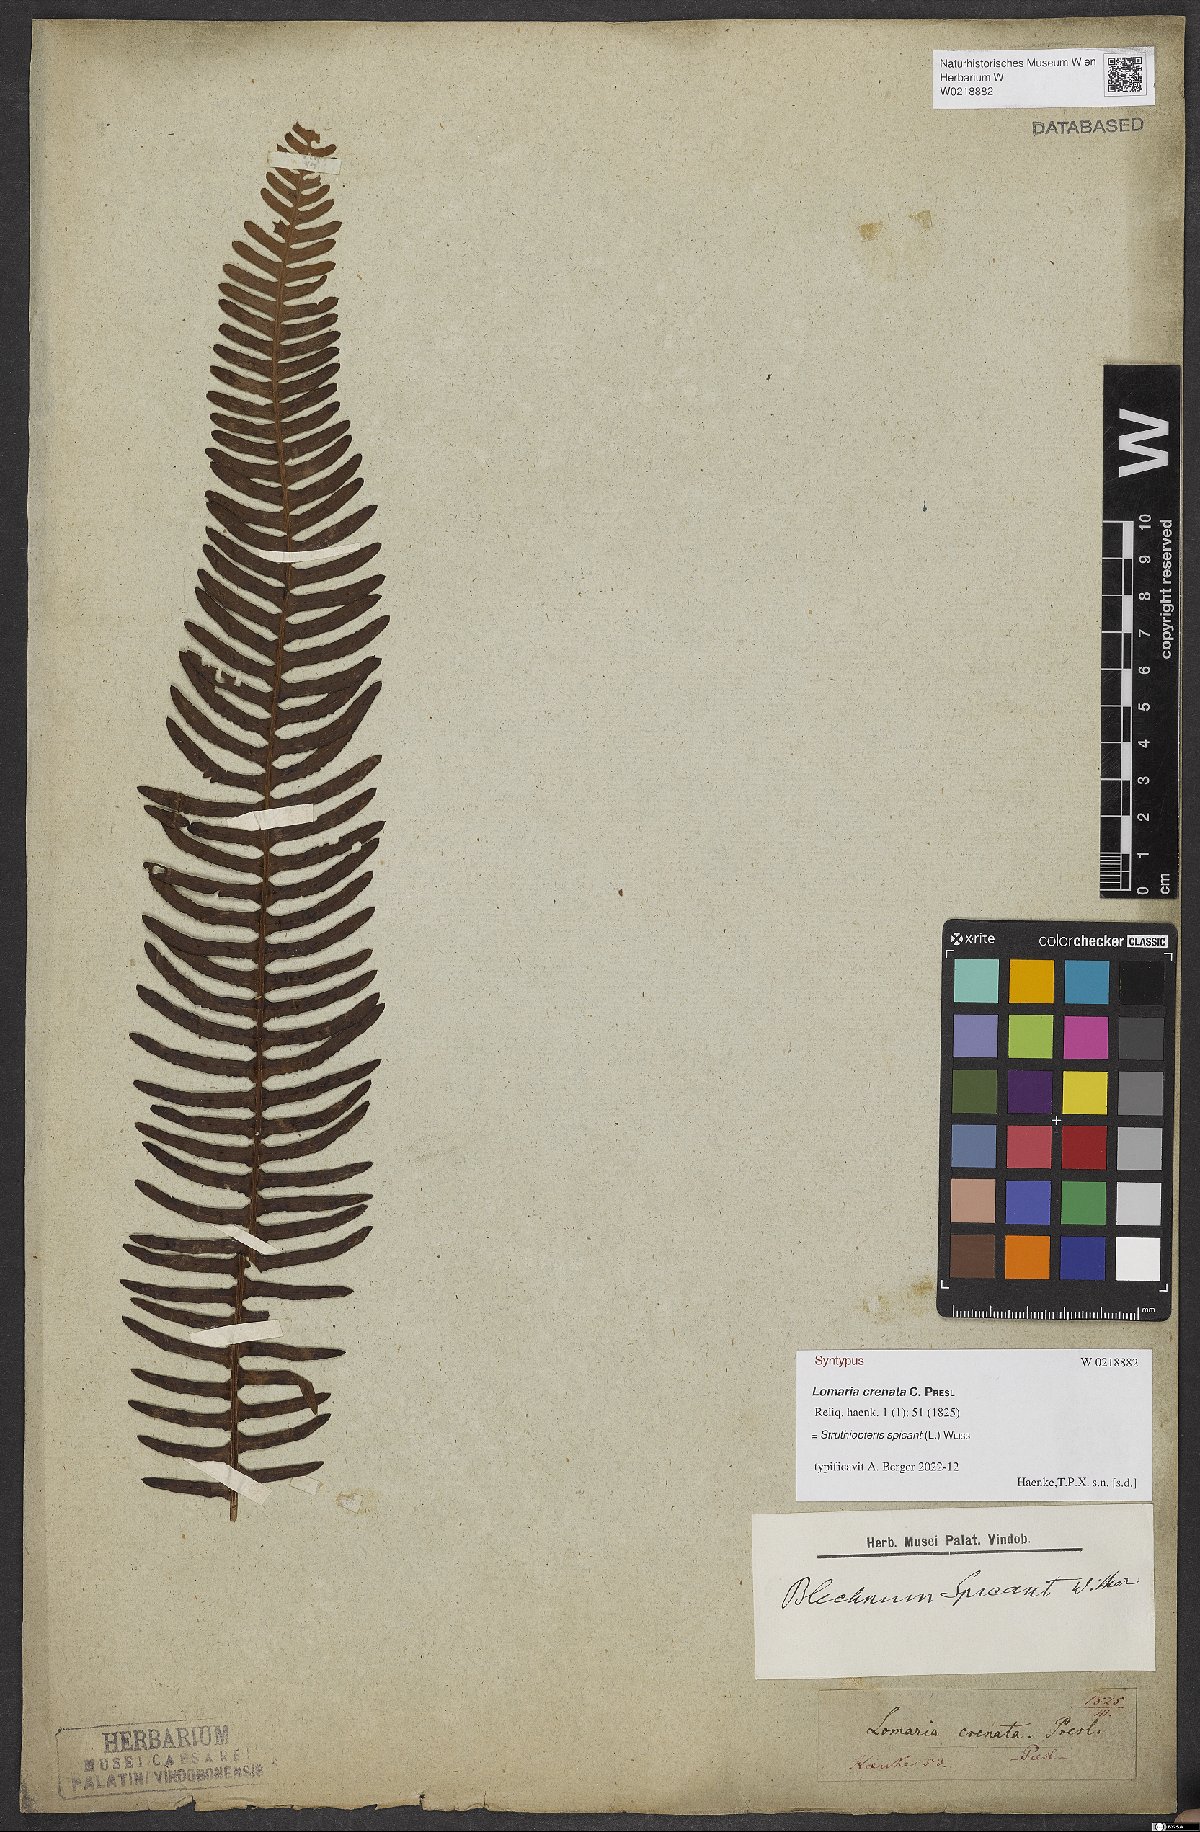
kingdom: Plantae
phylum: Tracheophyta
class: Polypodiopsida
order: Polypodiales
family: Blechnaceae
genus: Struthiopteris
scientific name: Struthiopteris spicant
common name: Deer fern
